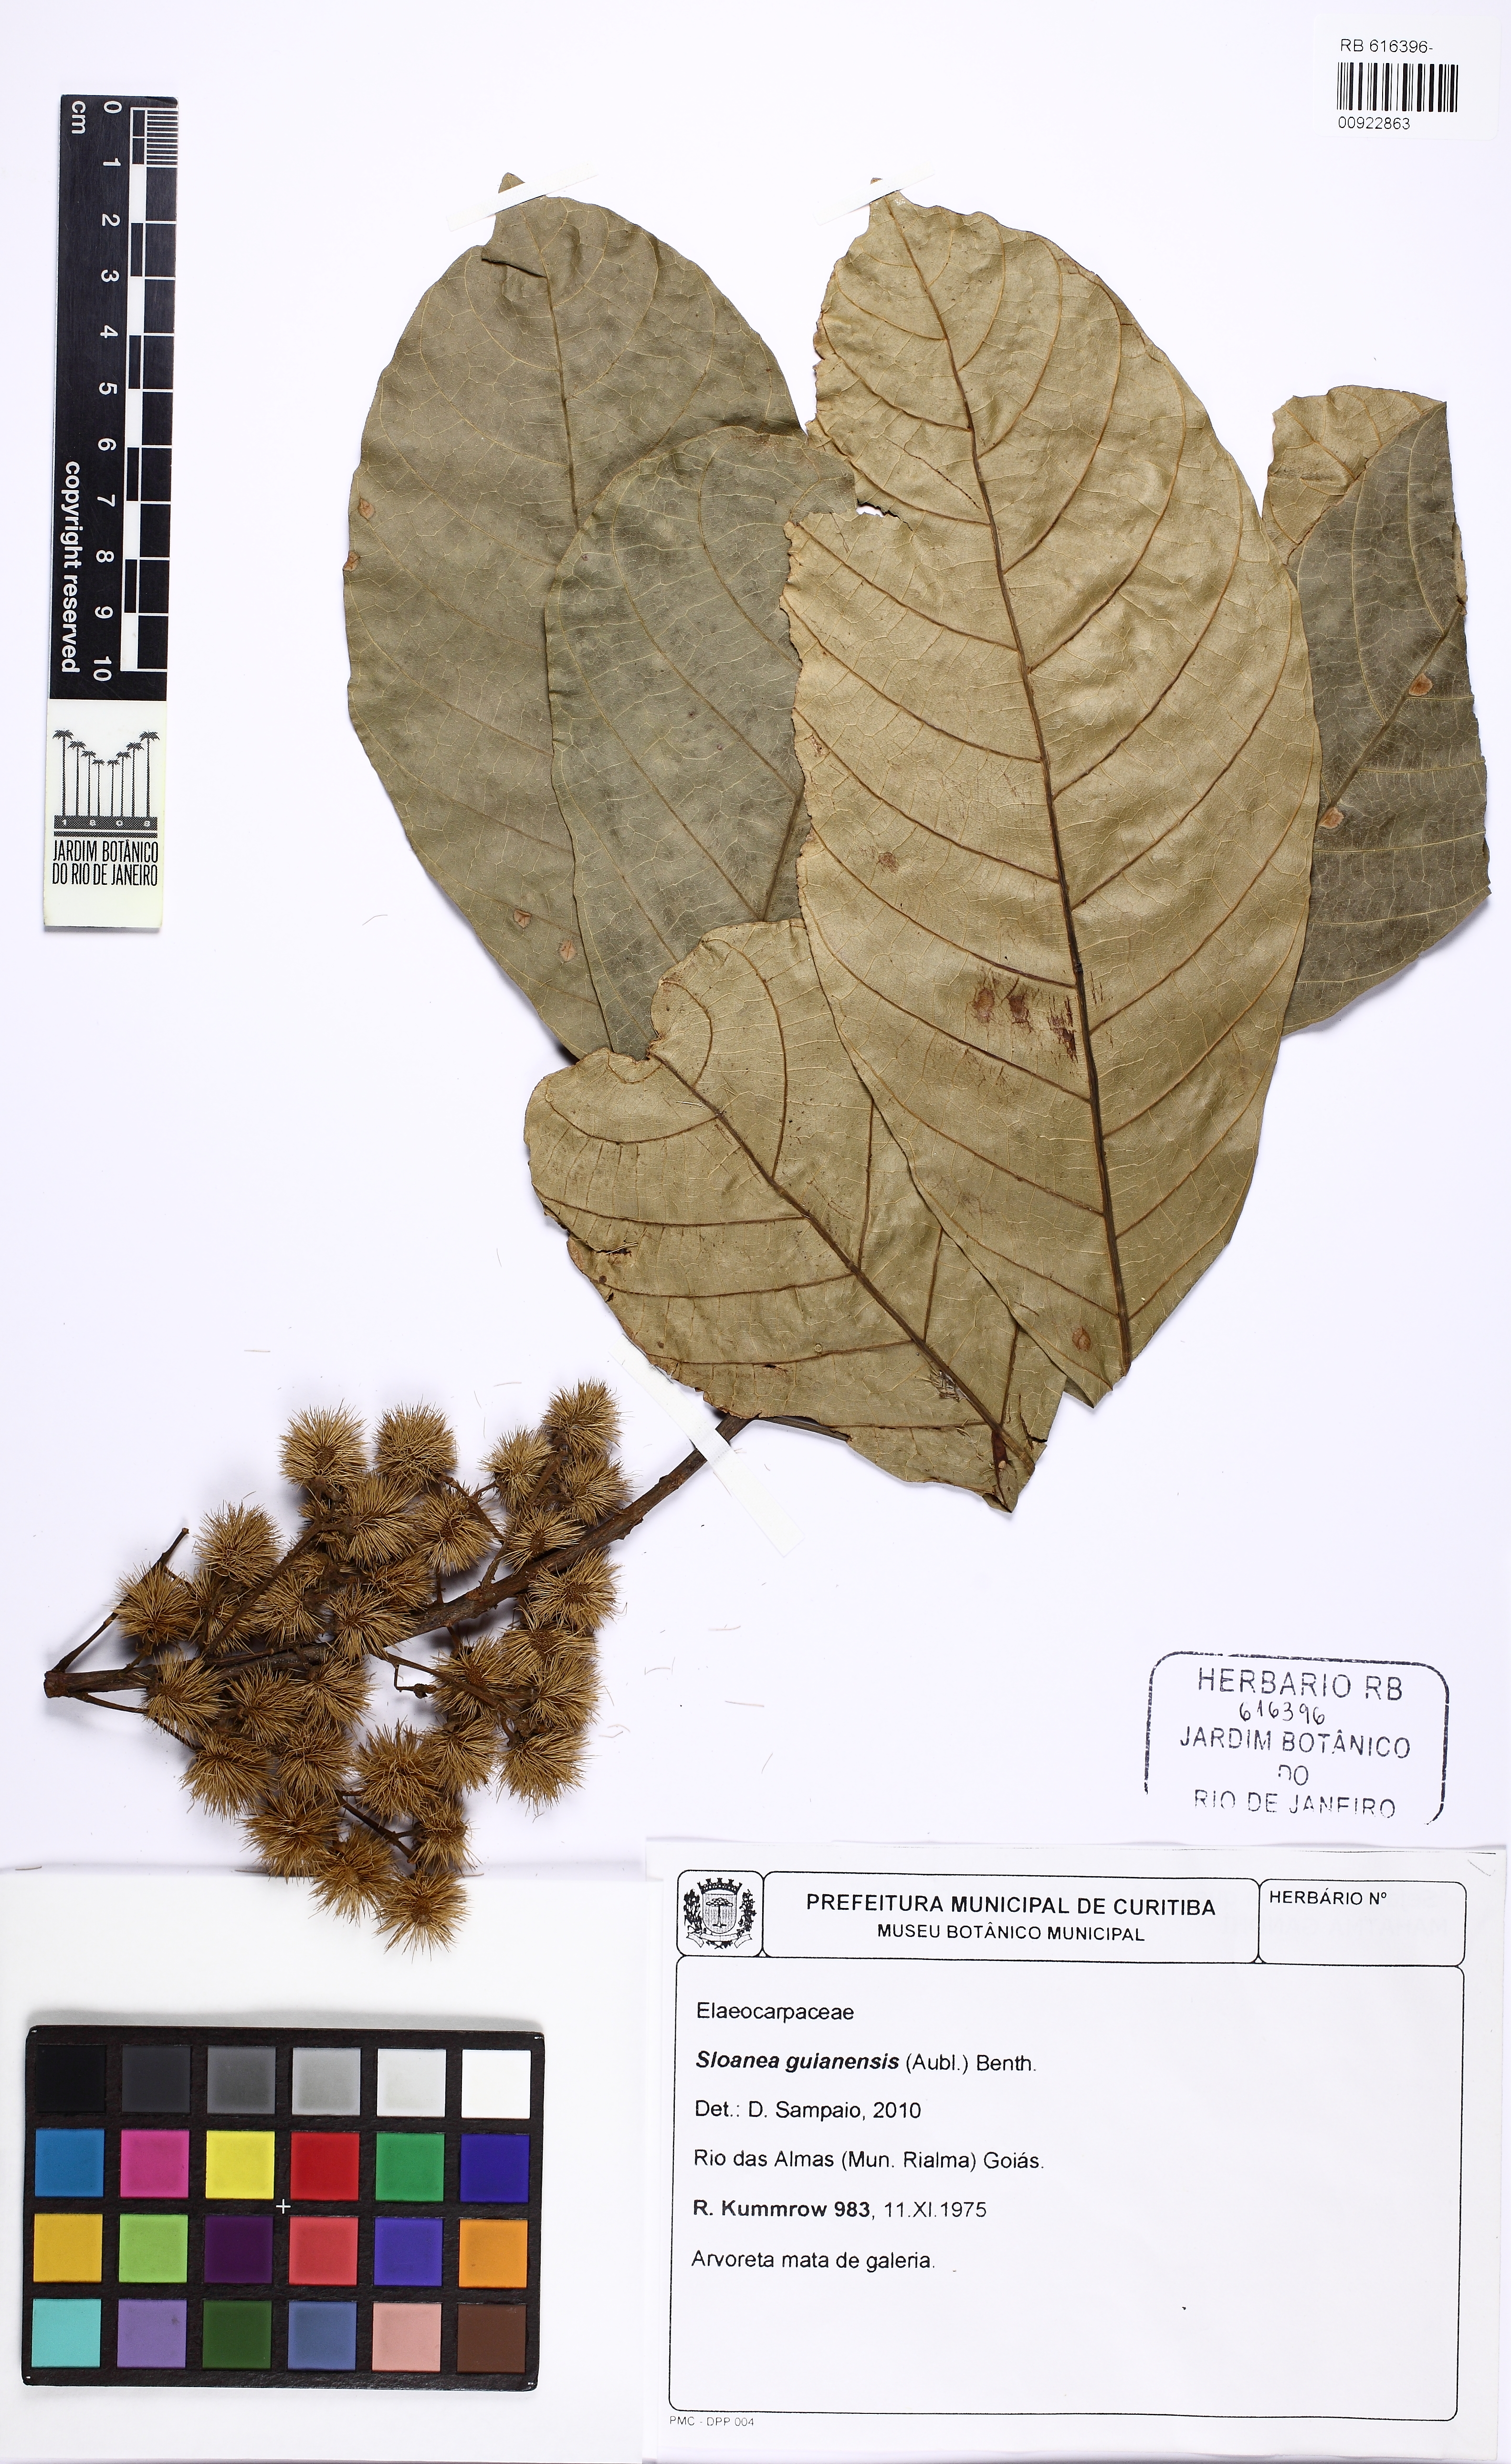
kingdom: Plantae
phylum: Tracheophyta
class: Magnoliopsida
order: Oxalidales
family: Elaeocarpaceae
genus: Sloanea
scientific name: Sloanea guianensis
